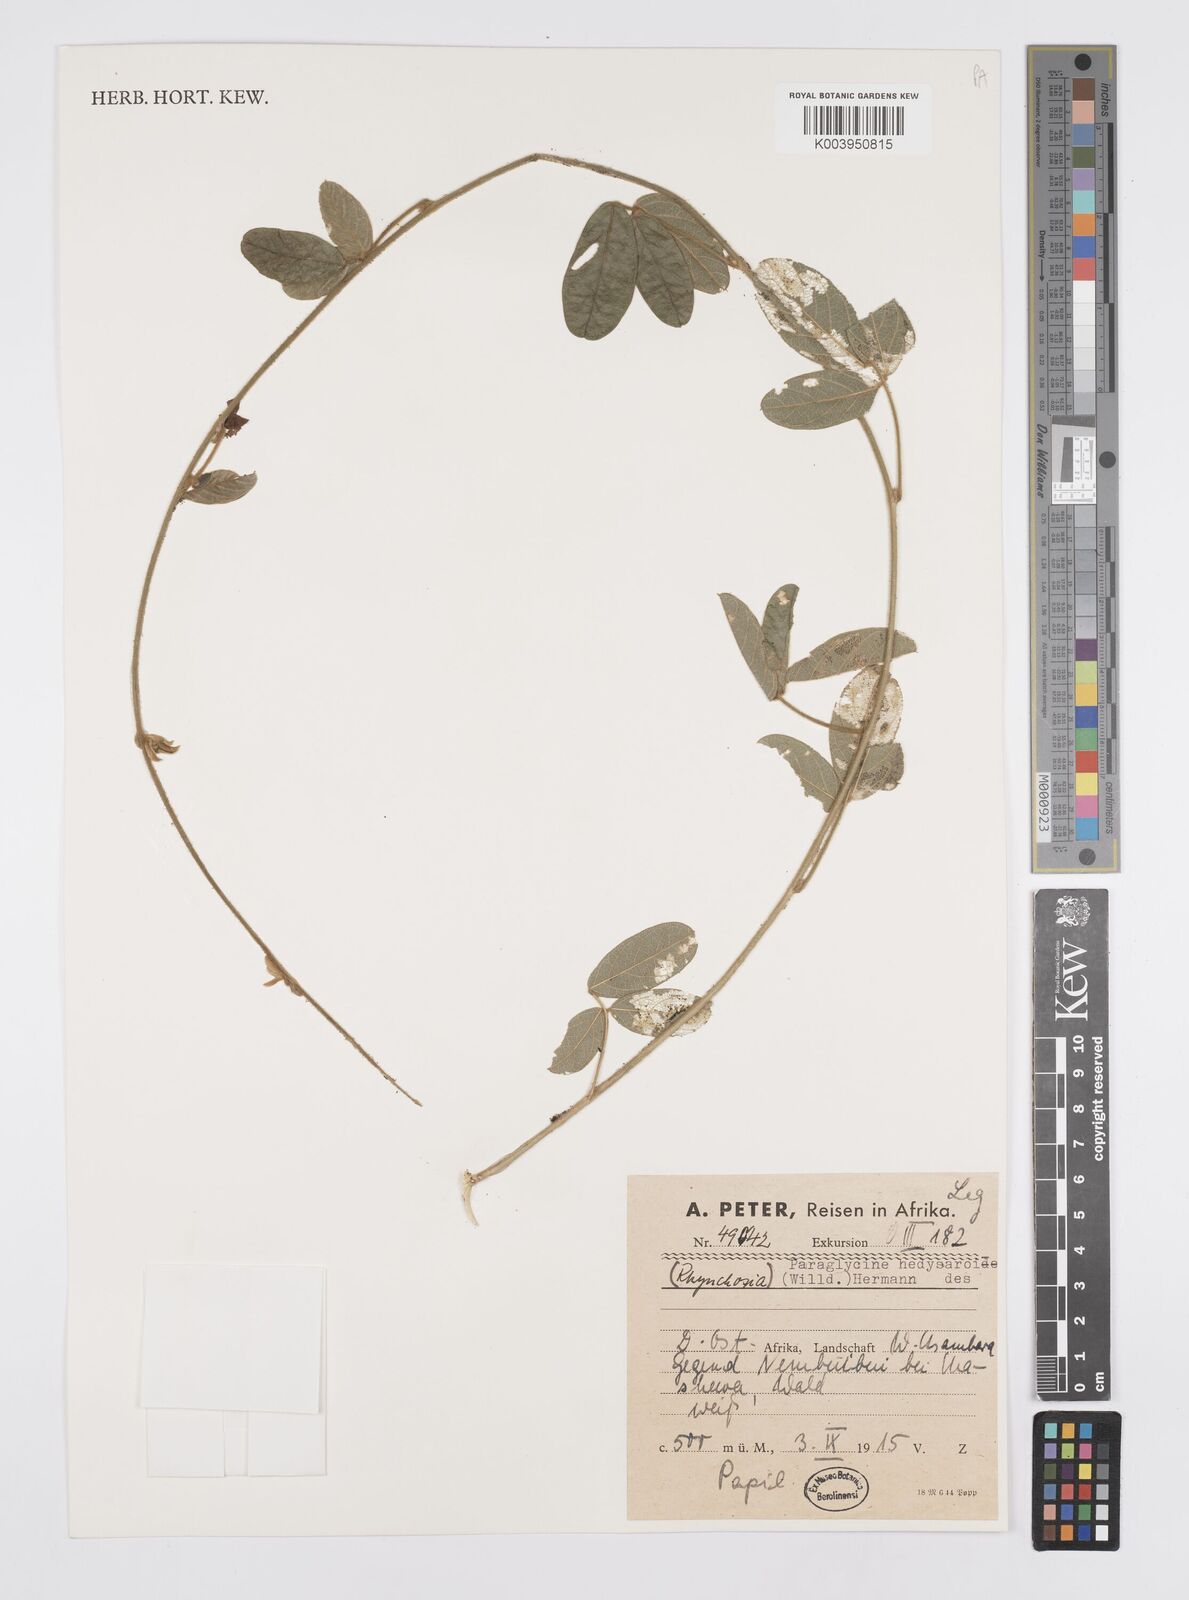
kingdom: Plantae
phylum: Tracheophyta
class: Magnoliopsida
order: Fabales
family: Fabaceae
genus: Ophrestia
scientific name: Ophrestia hedysaroides
